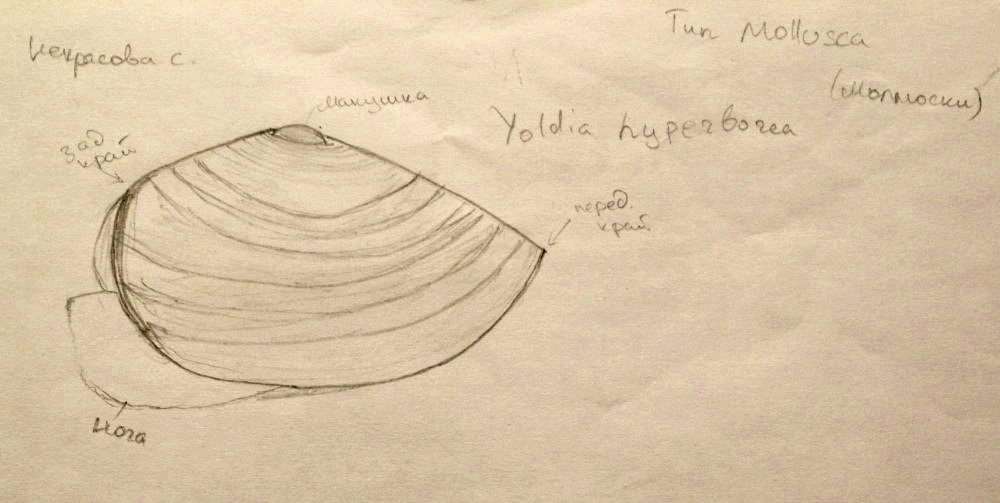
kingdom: Animalia
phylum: Mollusca
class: Bivalvia
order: Nuculanida
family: Yoldiidae
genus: Yoldia
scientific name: Yoldia hyperborea
